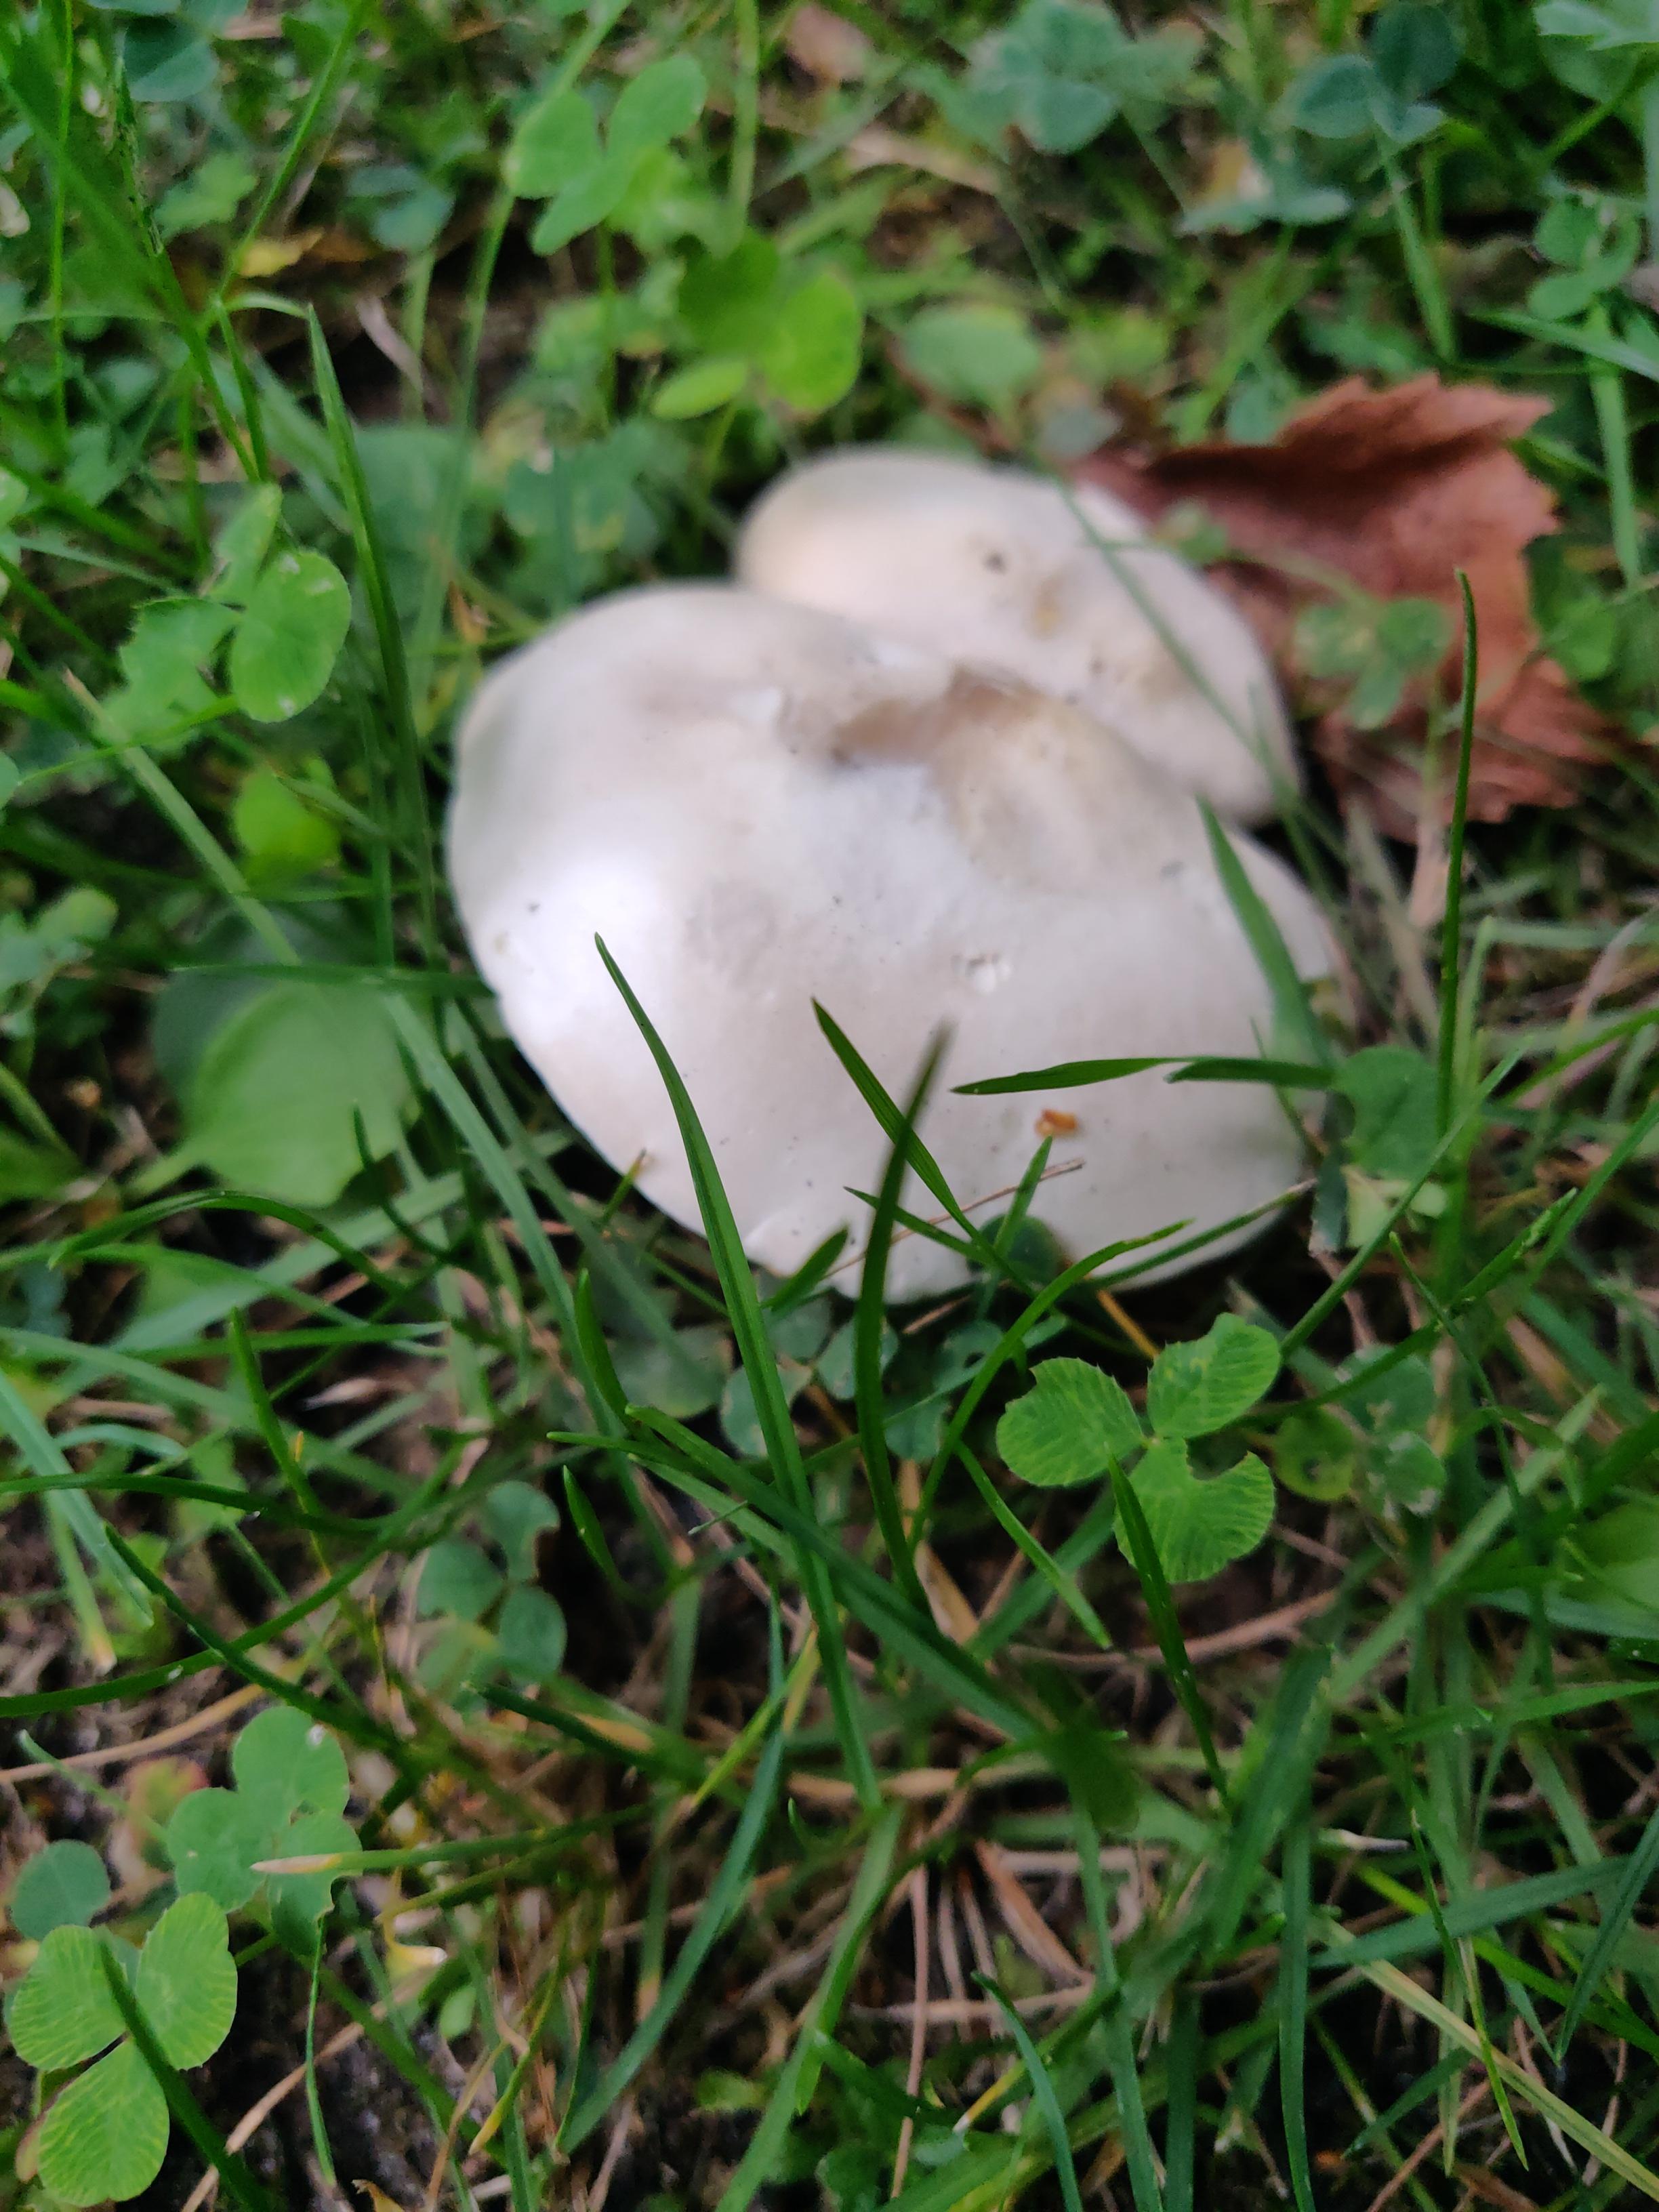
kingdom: Fungi
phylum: Basidiomycota
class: Agaricomycetes
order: Agaricales
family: Entolomataceae
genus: Clitopilus
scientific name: Clitopilus prunulus
